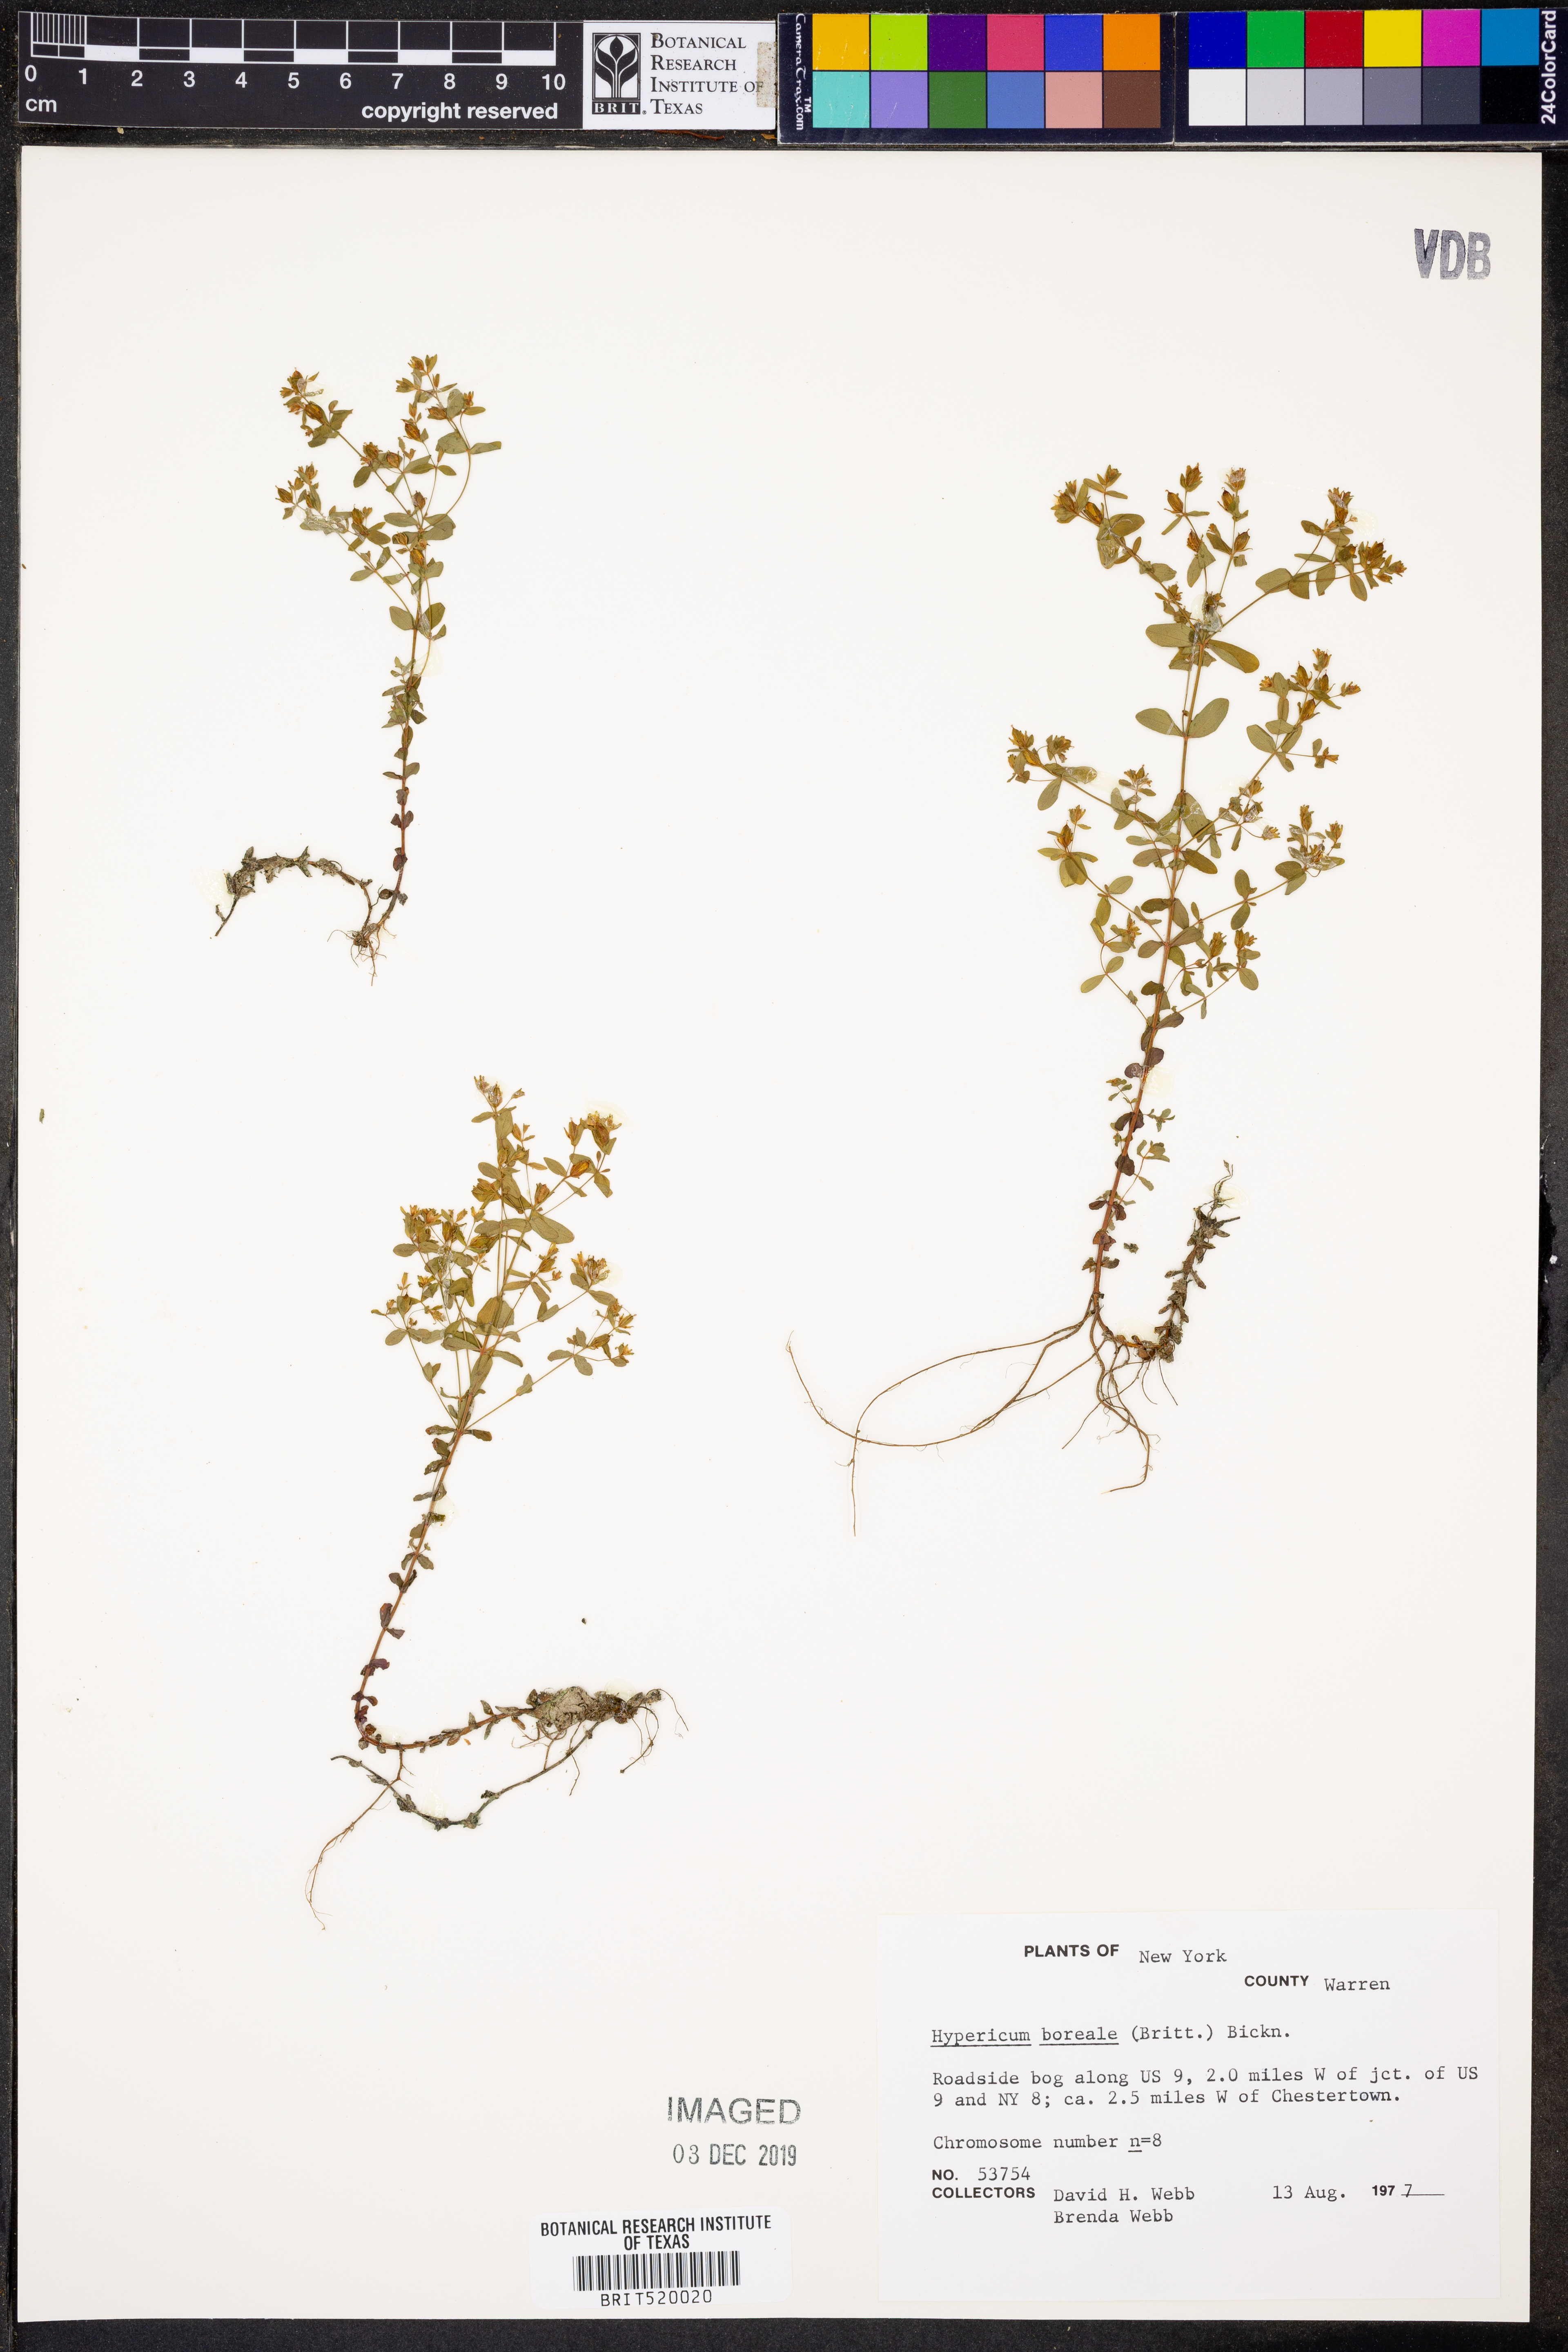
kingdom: Plantae
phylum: Tracheophyta
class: Magnoliopsida
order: Malpighiales
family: Hypericaceae
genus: Hypericum
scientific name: Hypericum boreale
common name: Northern bog st. john's-wort
